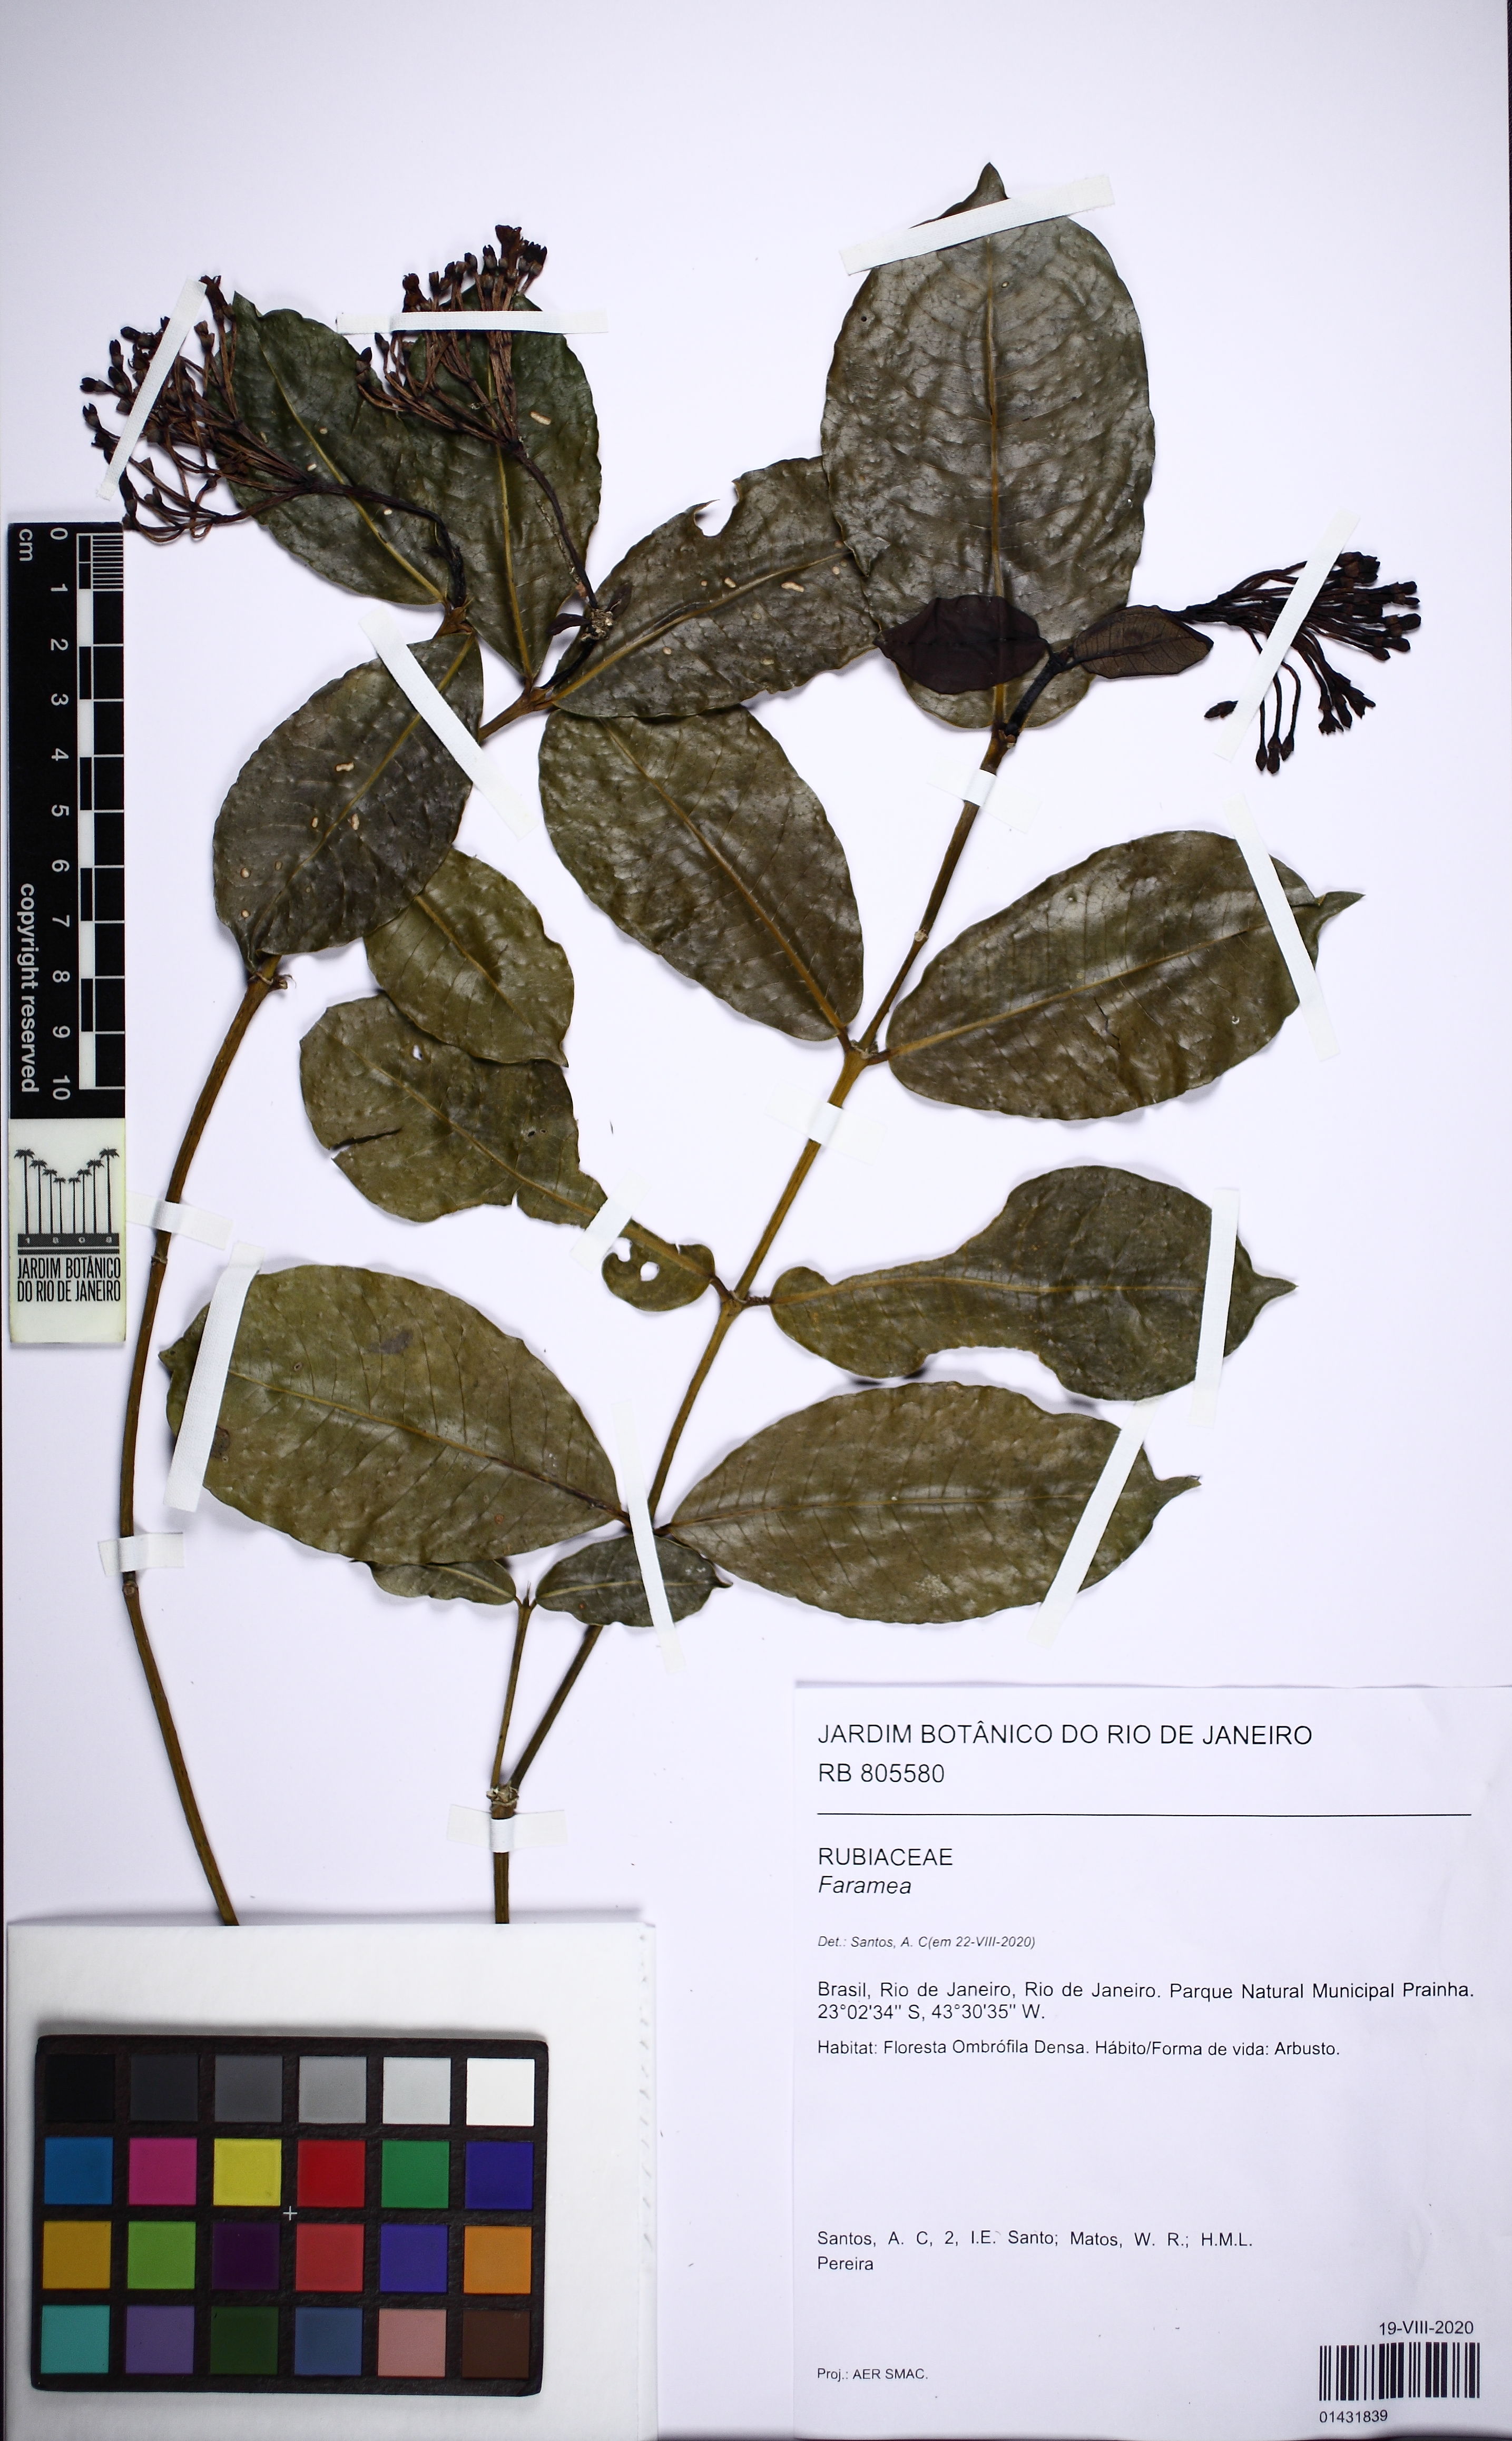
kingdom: Plantae
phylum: Tracheophyta
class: Magnoliopsida
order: Gentianales
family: Rubiaceae
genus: Faramea
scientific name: Faramea platypoda
